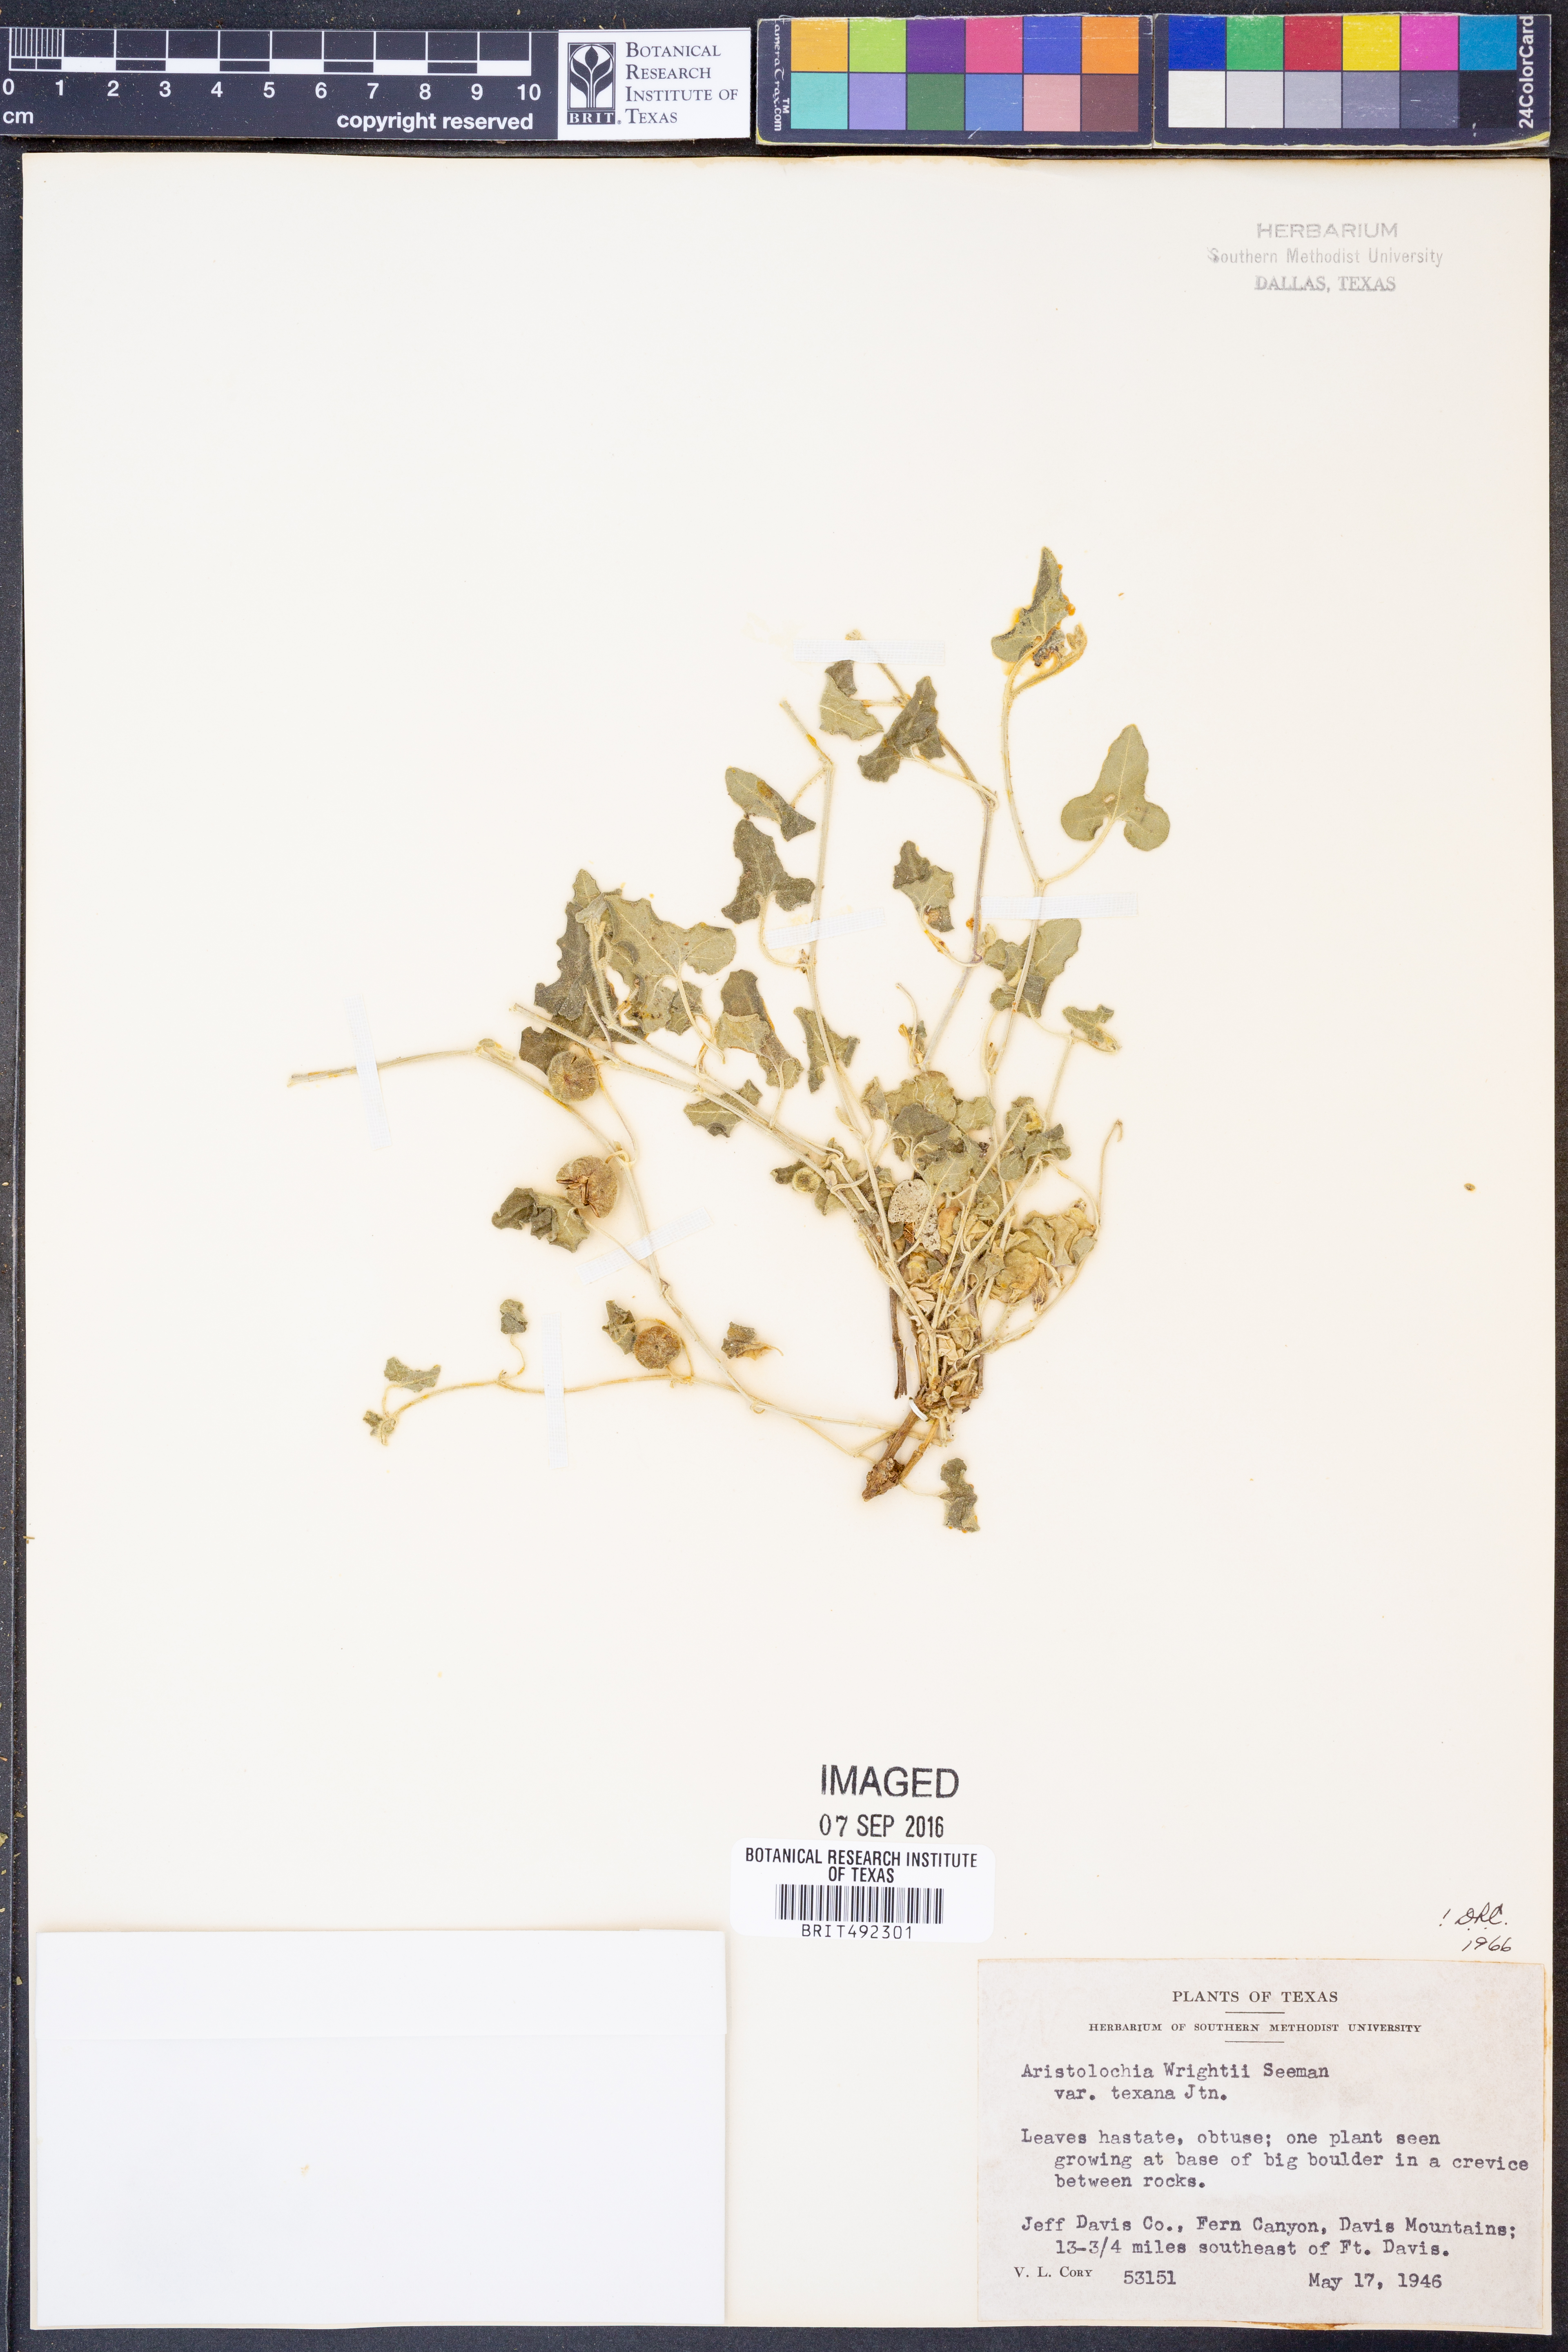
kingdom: Plantae
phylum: Tracheophyta
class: Magnoliopsida
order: Piperales
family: Aristolochiaceae
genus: Aristolochia
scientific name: Aristolochia wrightii
